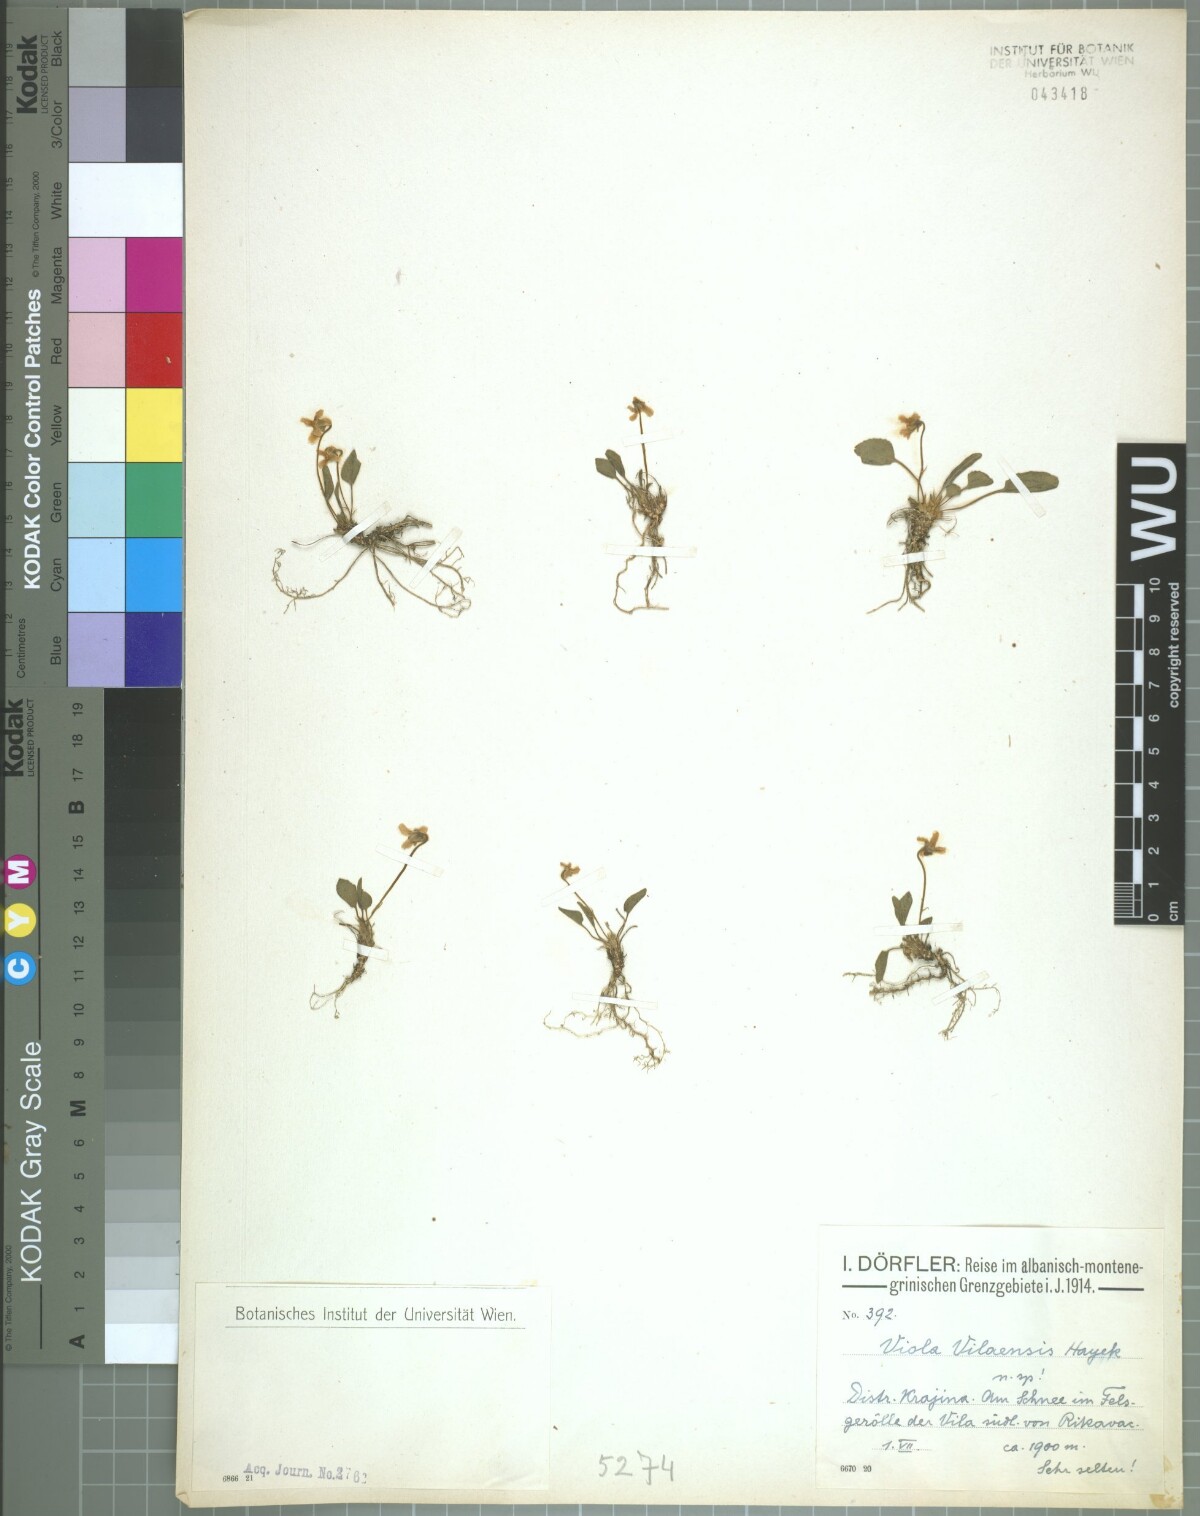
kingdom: Plantae
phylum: Tracheophyta
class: Magnoliopsida
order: Malpighiales
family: Violaceae
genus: Viola
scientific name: Viola vilaensis
